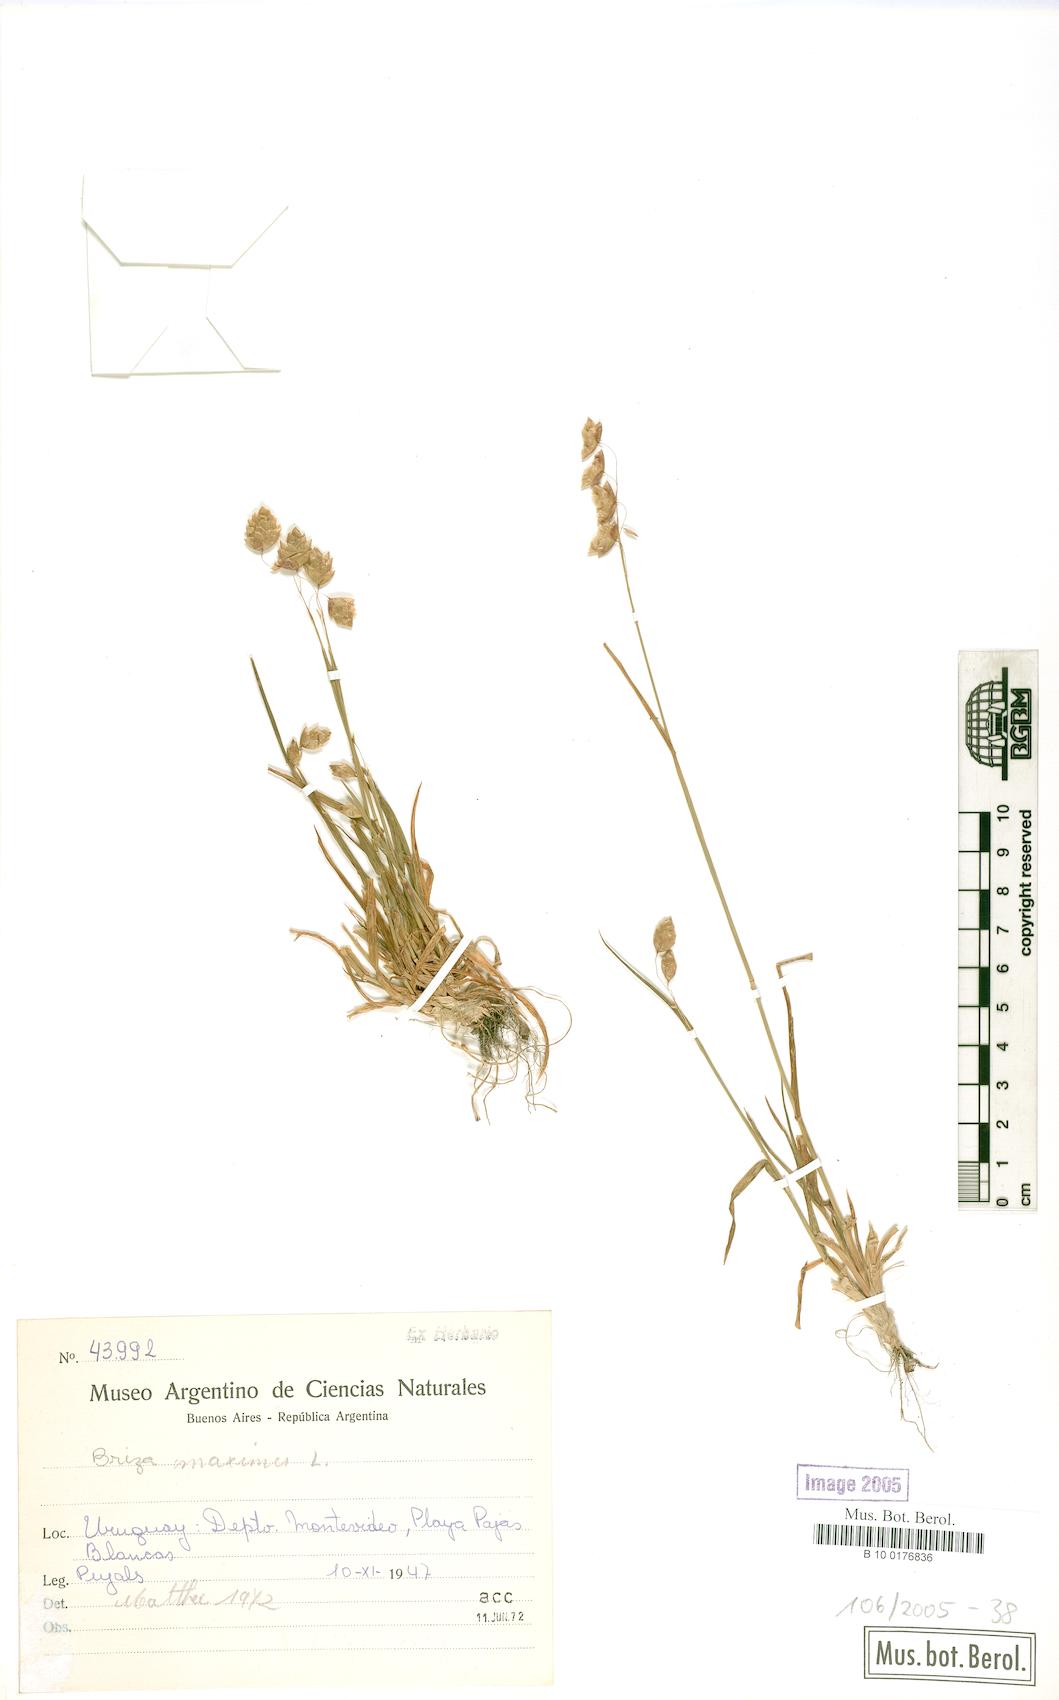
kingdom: Plantae
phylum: Tracheophyta
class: Liliopsida
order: Poales
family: Poaceae
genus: Briza
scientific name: Briza maxima
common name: Big quakinggrass
